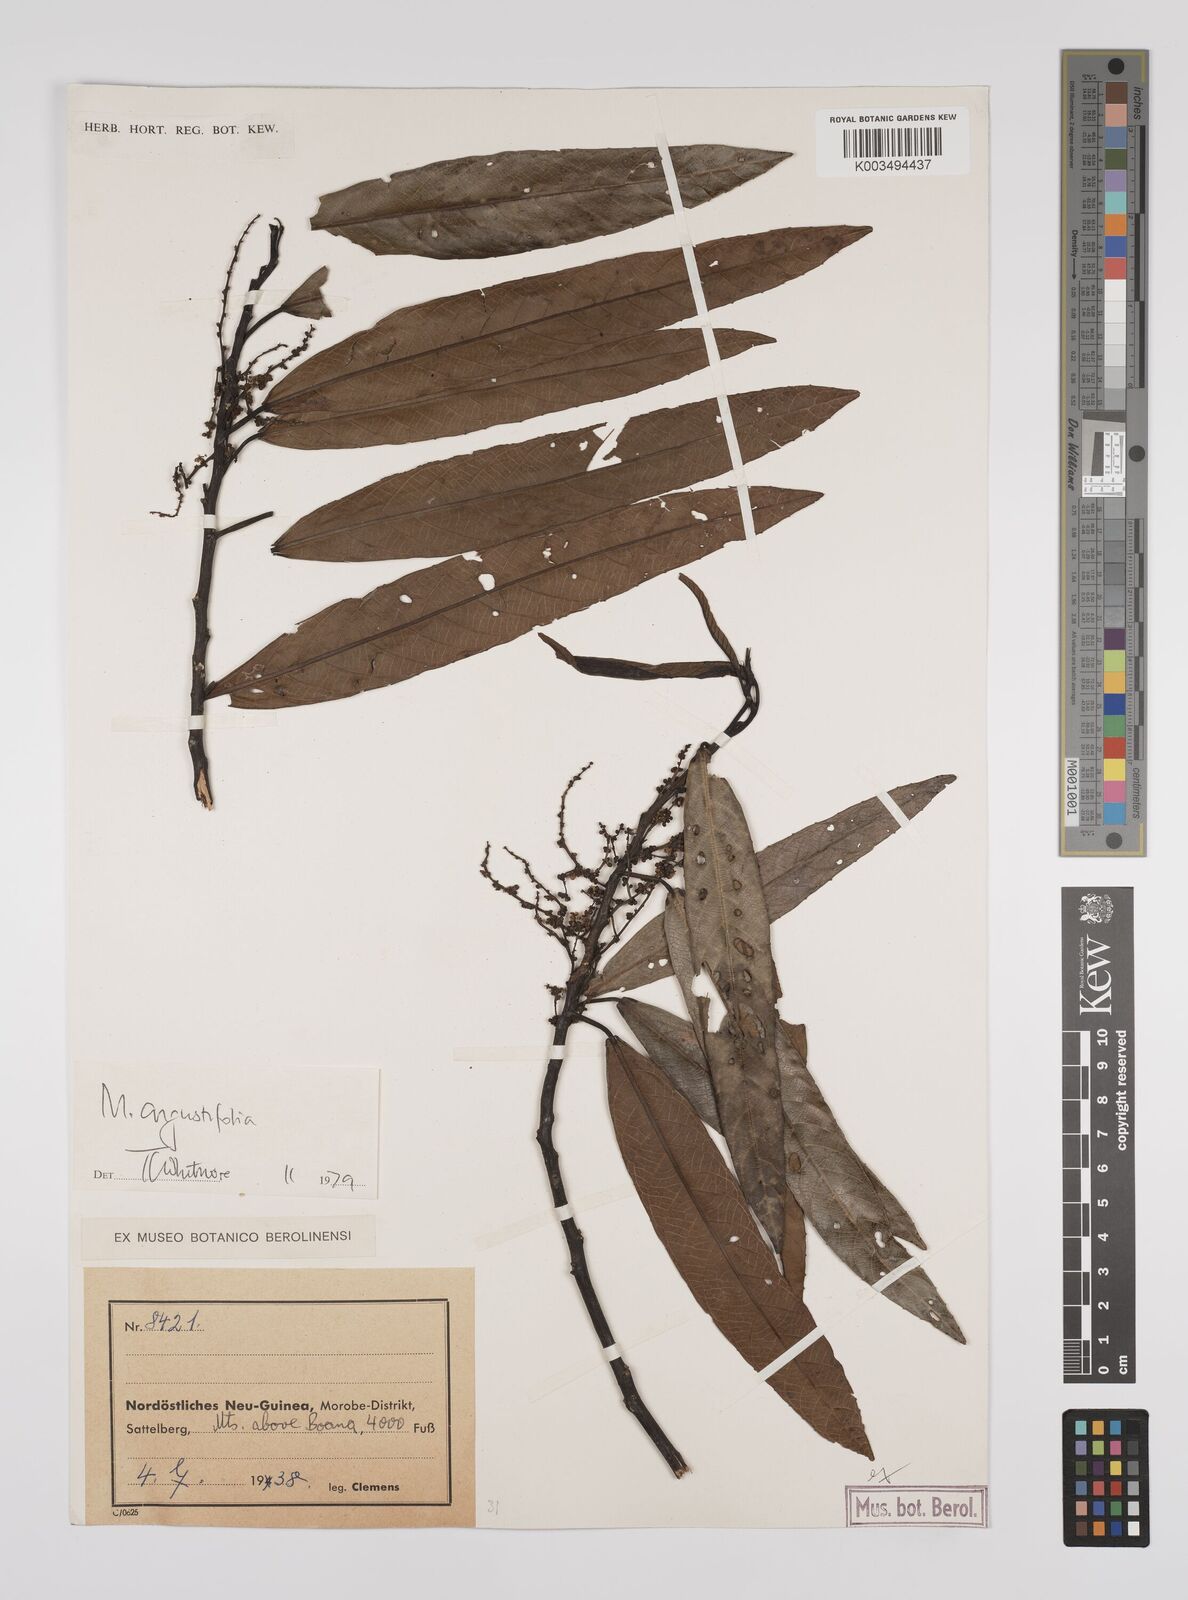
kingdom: Plantae
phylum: Tracheophyta
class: Magnoliopsida
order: Malpighiales
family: Euphorbiaceae
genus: Macaranga
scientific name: Macaranga angustifolia
